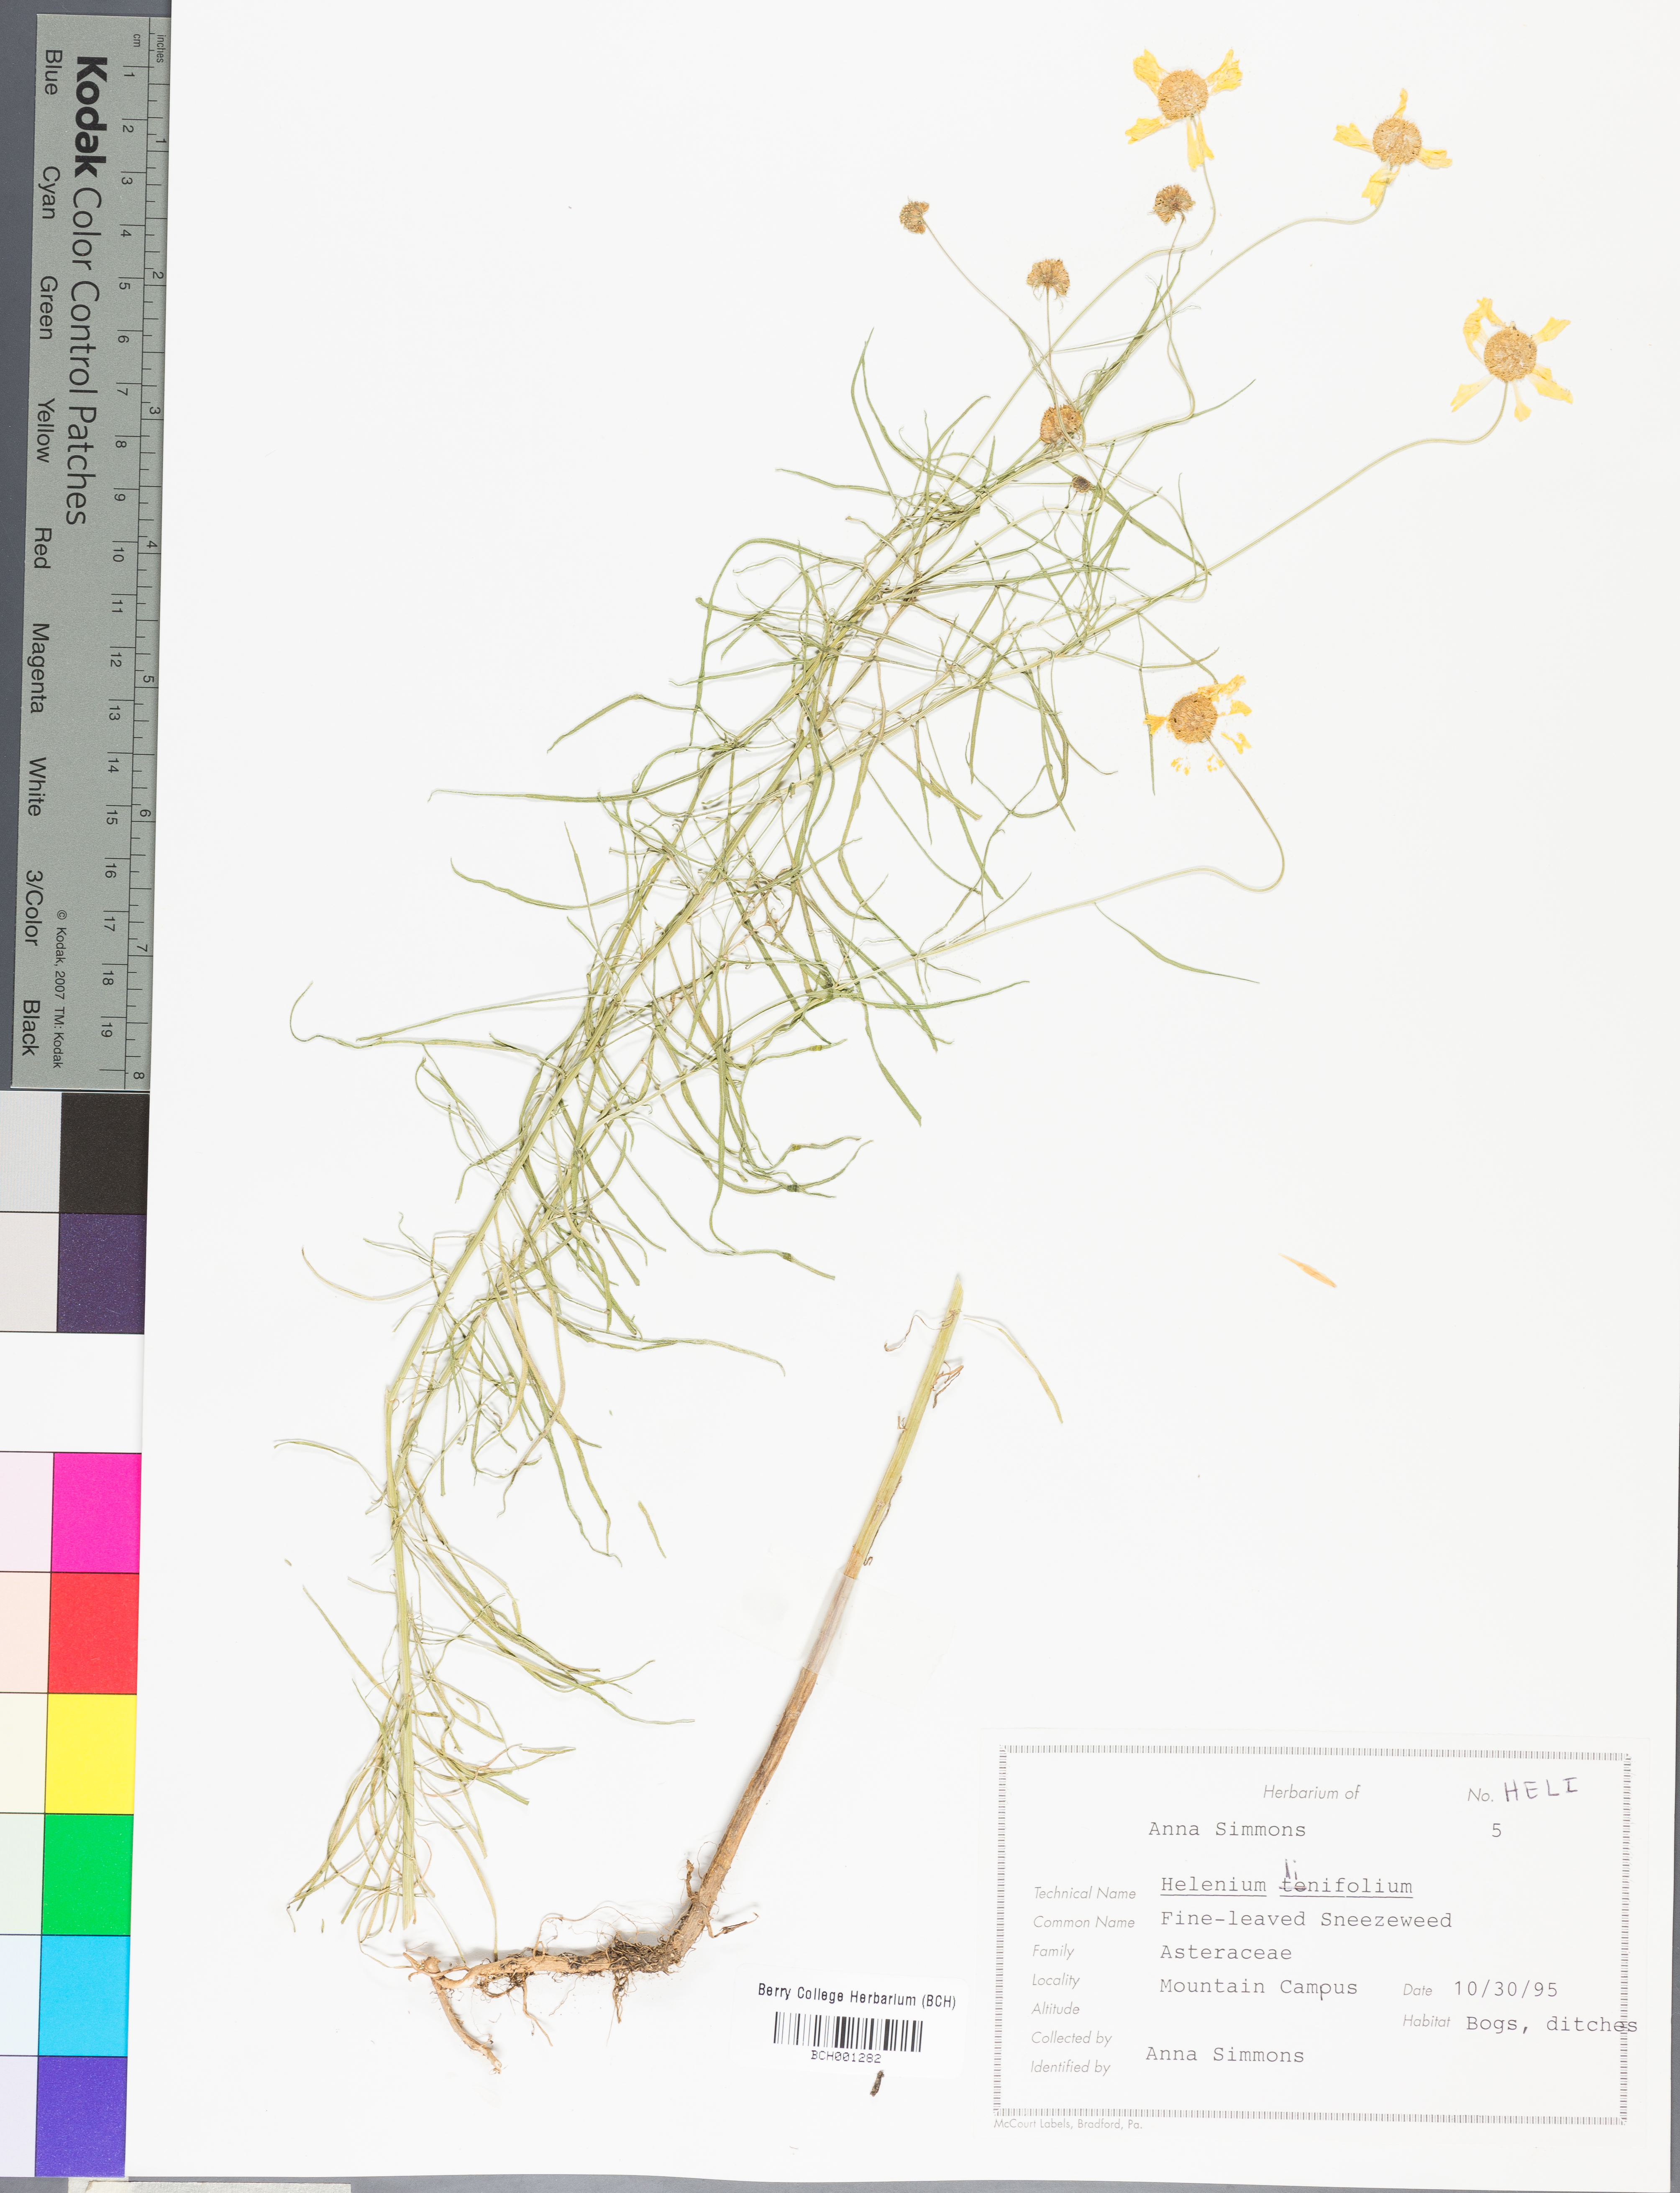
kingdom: Plantae
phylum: Tracheophyta
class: Magnoliopsida
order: Asterales
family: Asteraceae
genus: Chaptalia
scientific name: Chaptalia tomentosa
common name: Woolly sunbonnet
